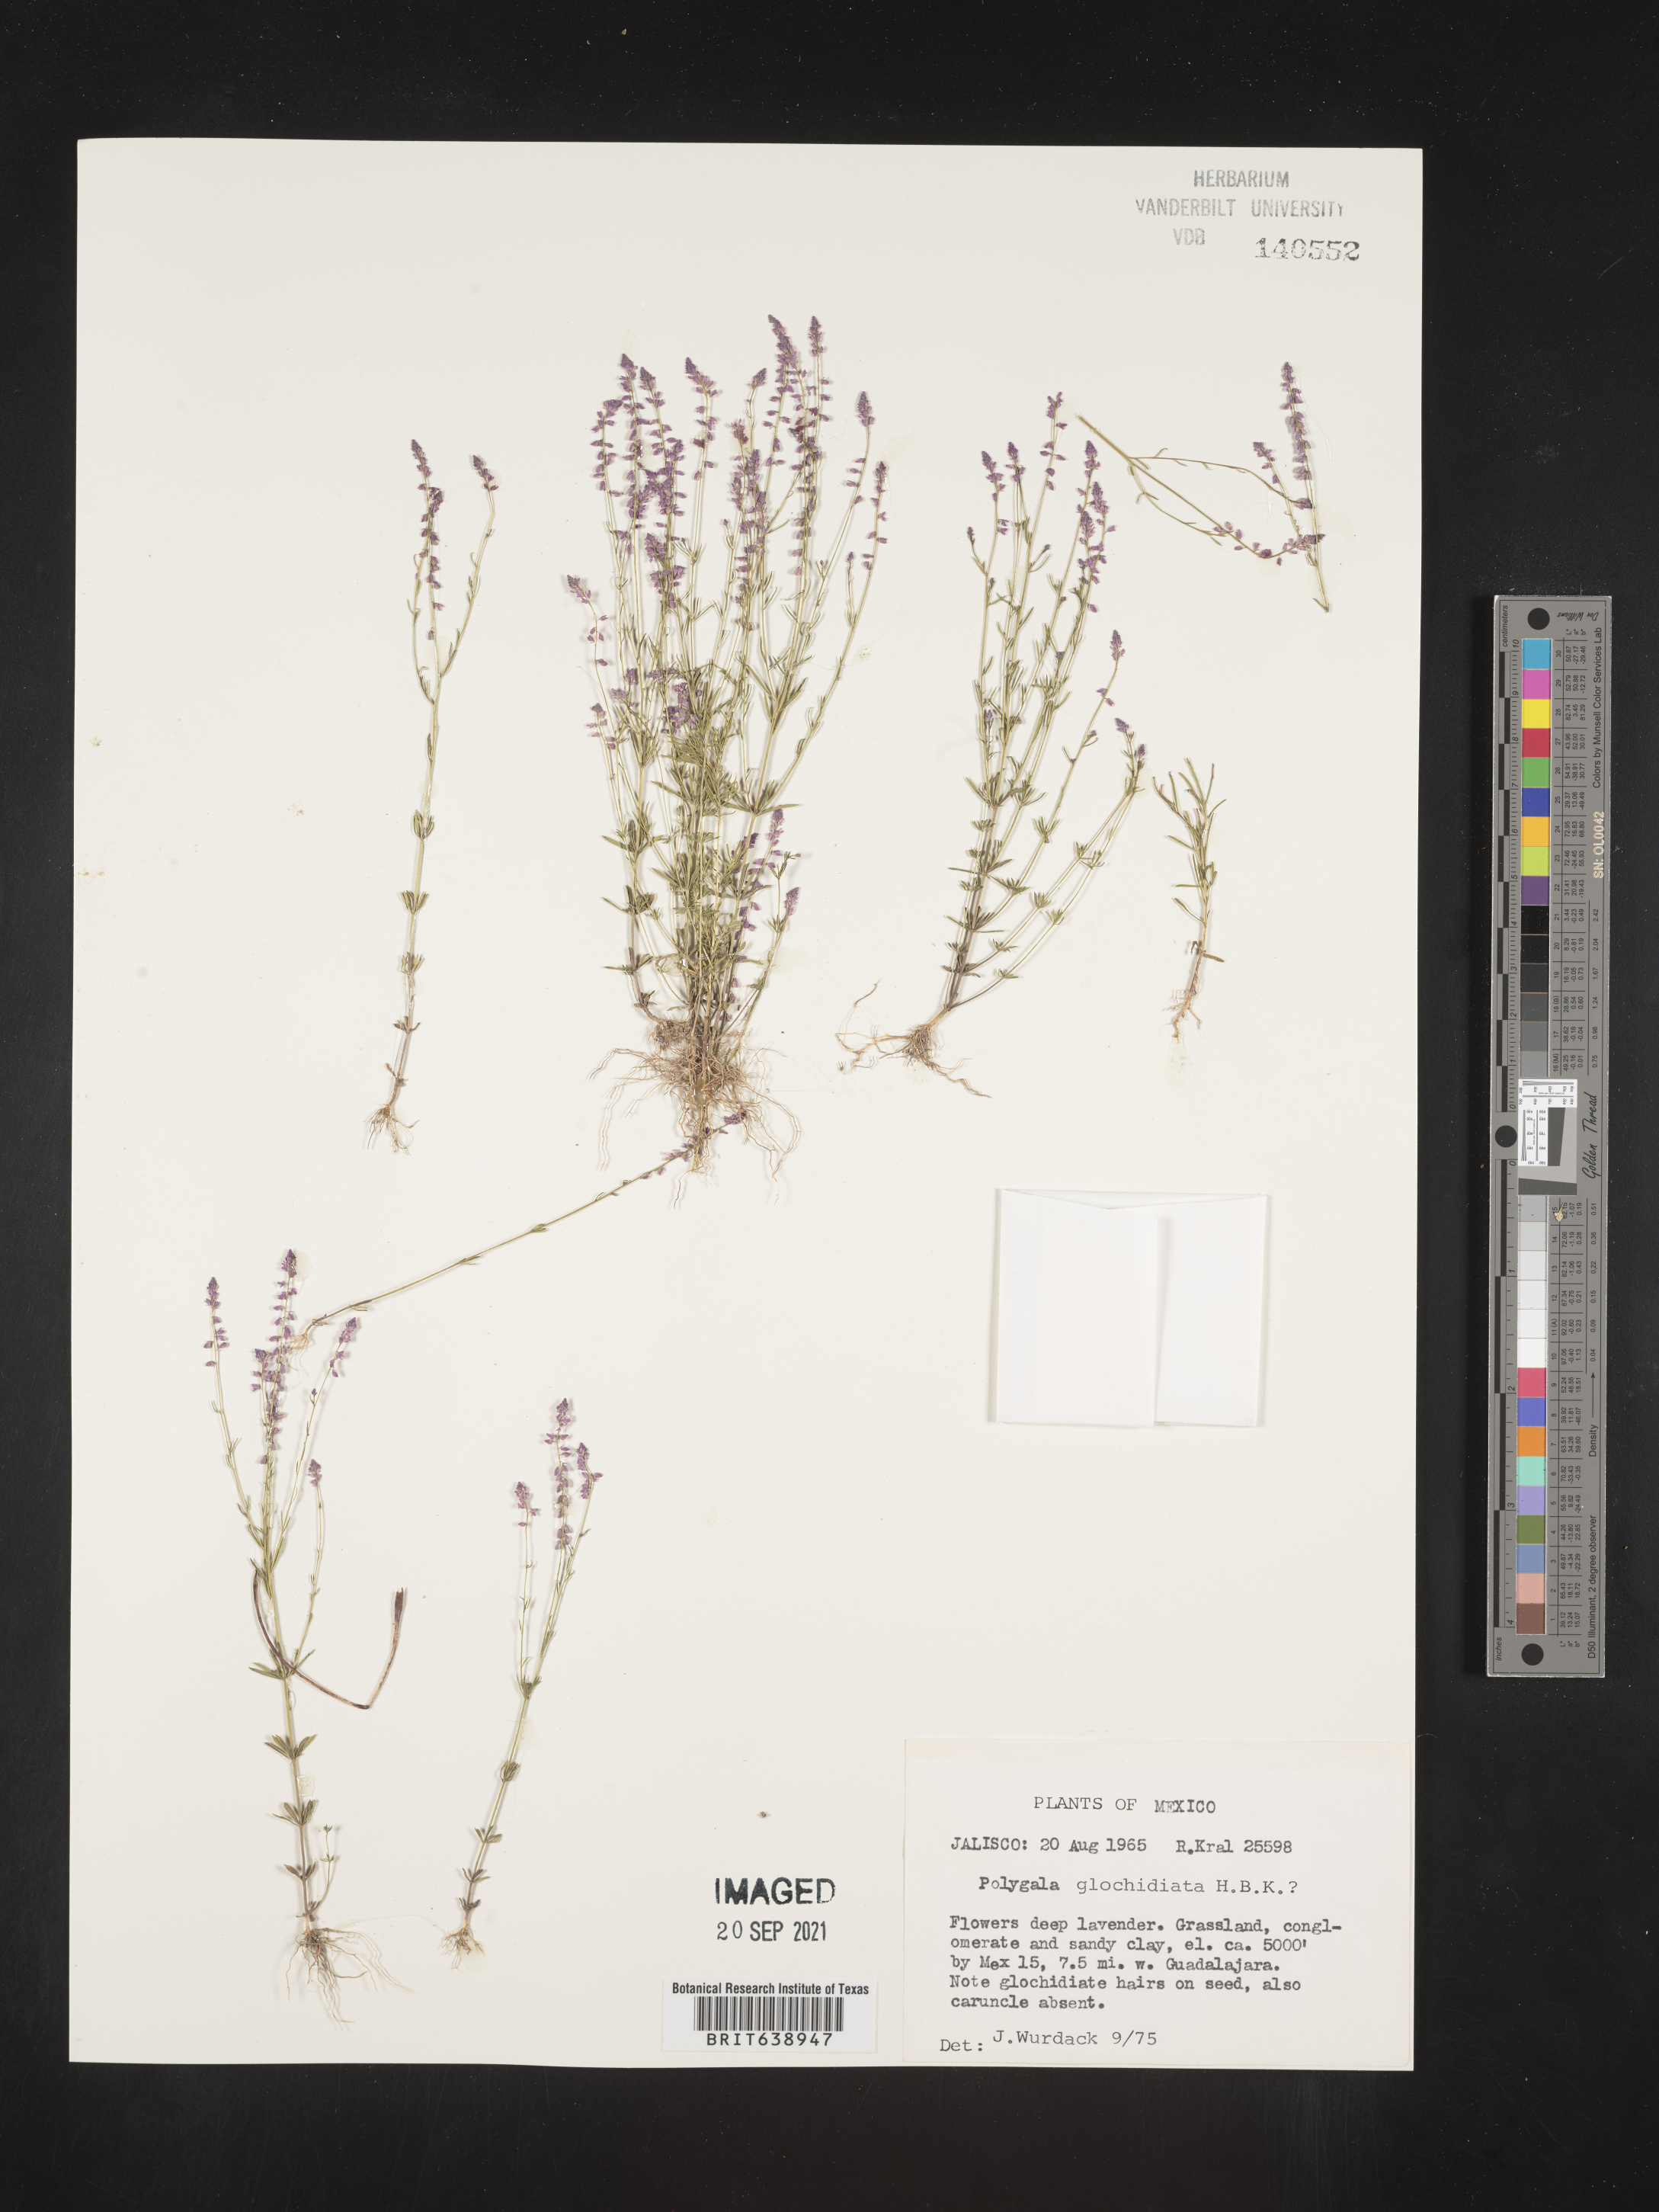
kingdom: Plantae
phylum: Tracheophyta
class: Magnoliopsida
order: Fabales
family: Polygalaceae
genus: Polygala
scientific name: Polygala
